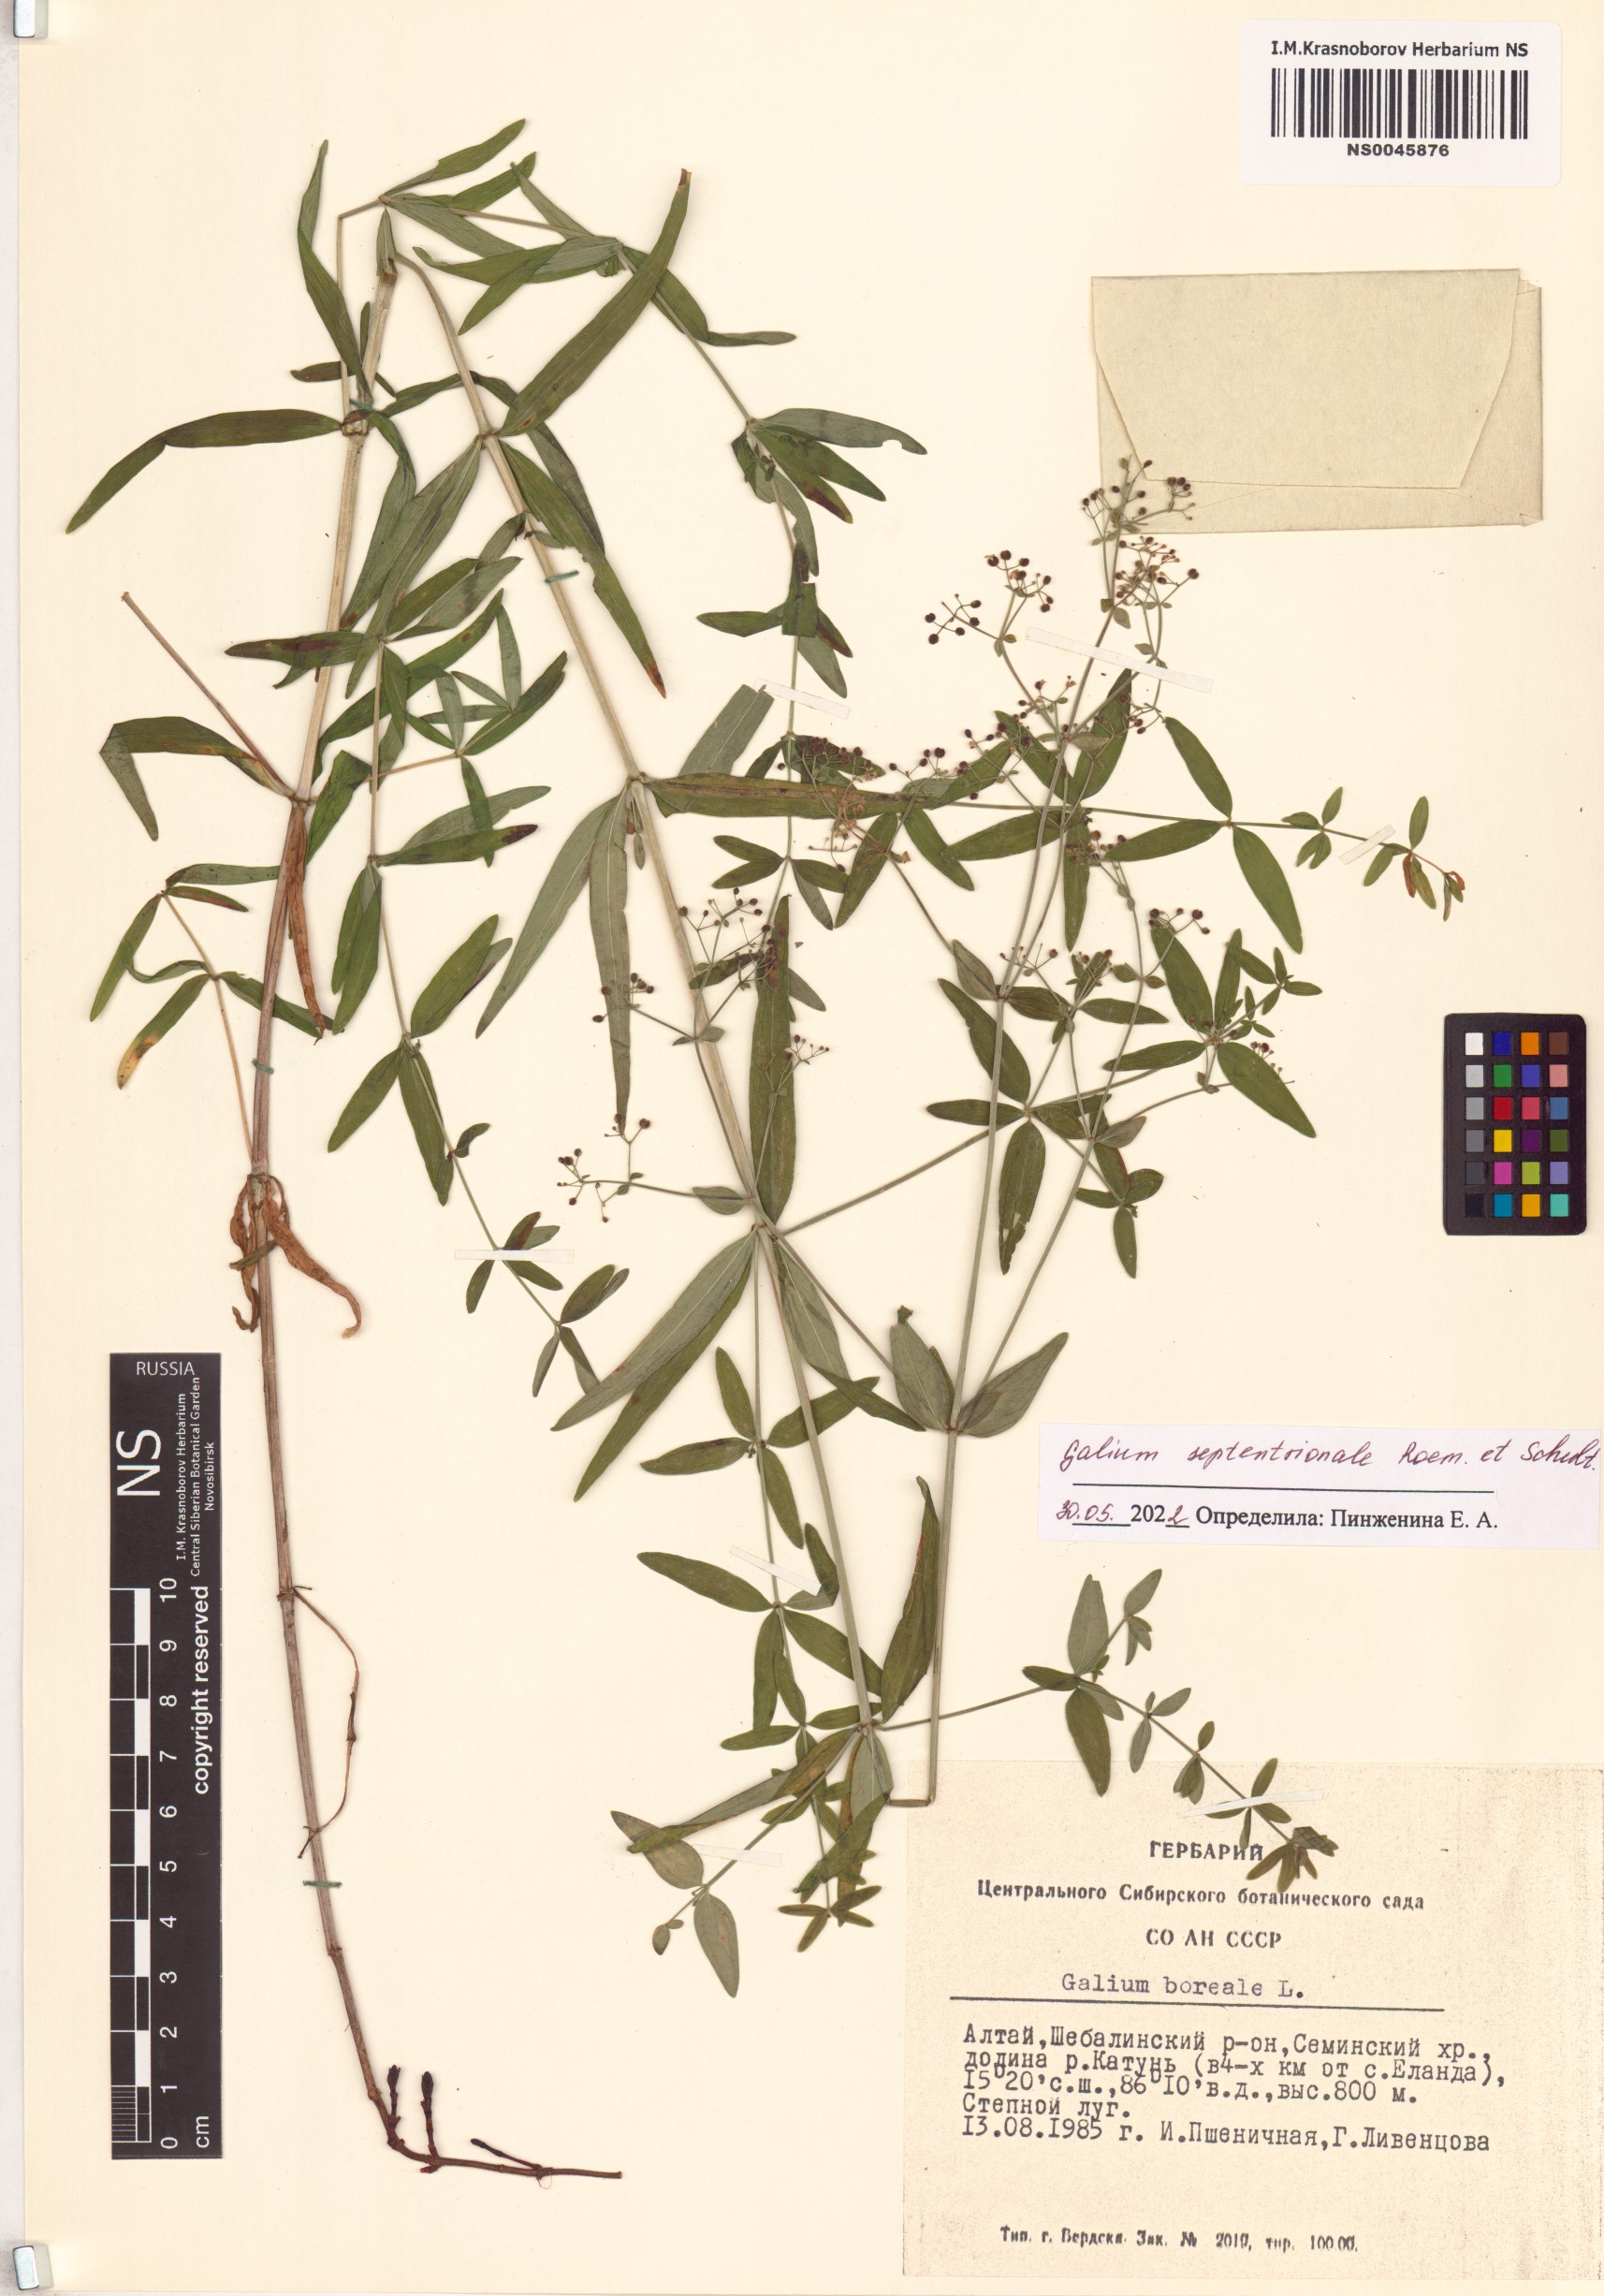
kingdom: Plantae
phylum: Tracheophyta
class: Magnoliopsida
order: Gentianales
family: Rubiaceae
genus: Galium
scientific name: Galium boreale
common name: Northern bedstraw
